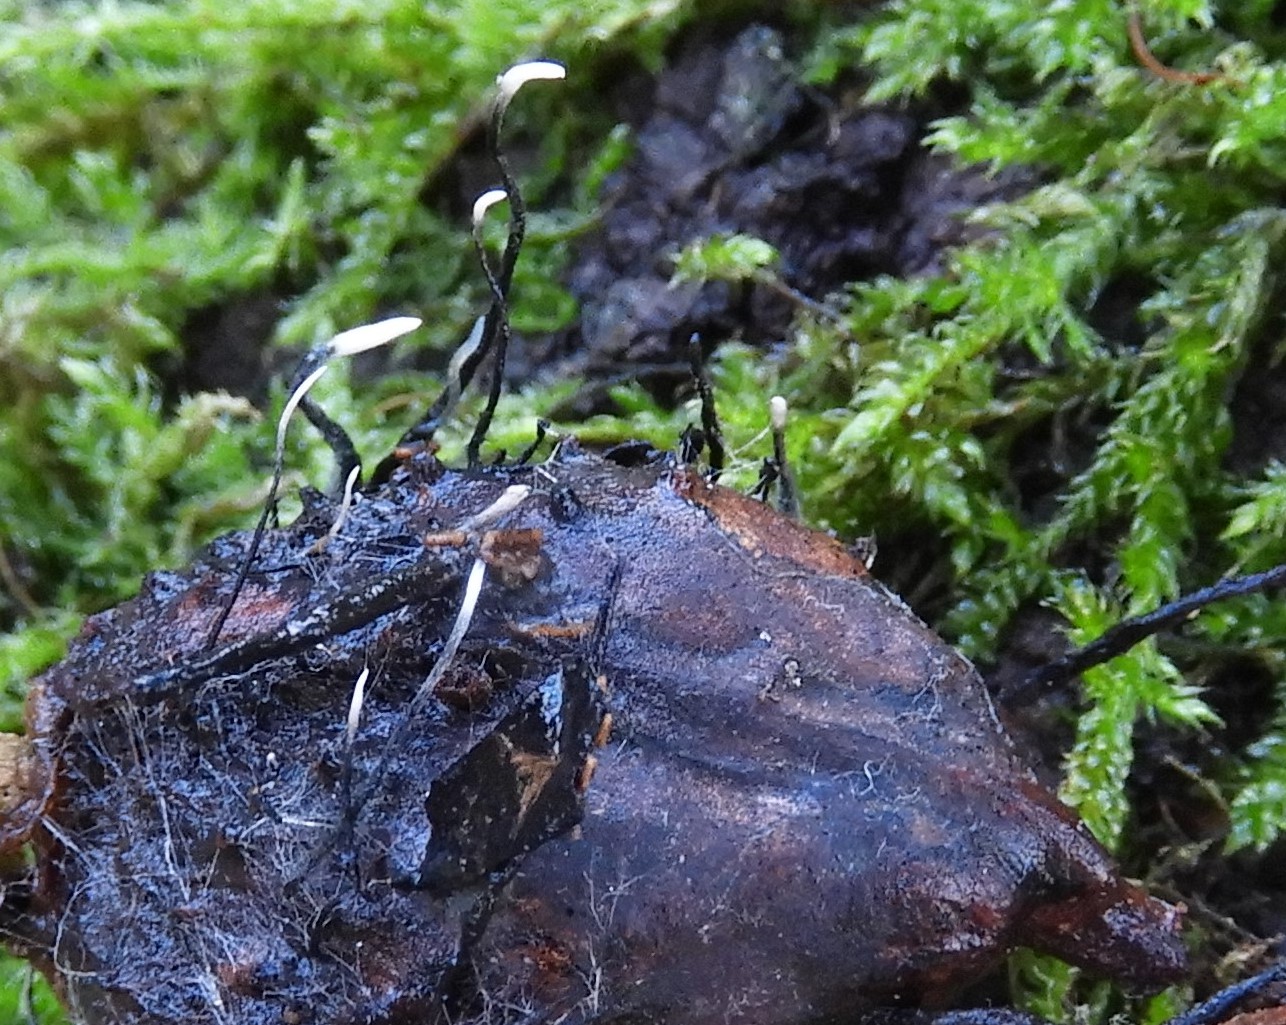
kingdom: Fungi
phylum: Ascomycota
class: Sordariomycetes
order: Xylariales
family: Xylariaceae
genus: Xylaria
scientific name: Xylaria carpophila
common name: bogskål-stødsvamp
